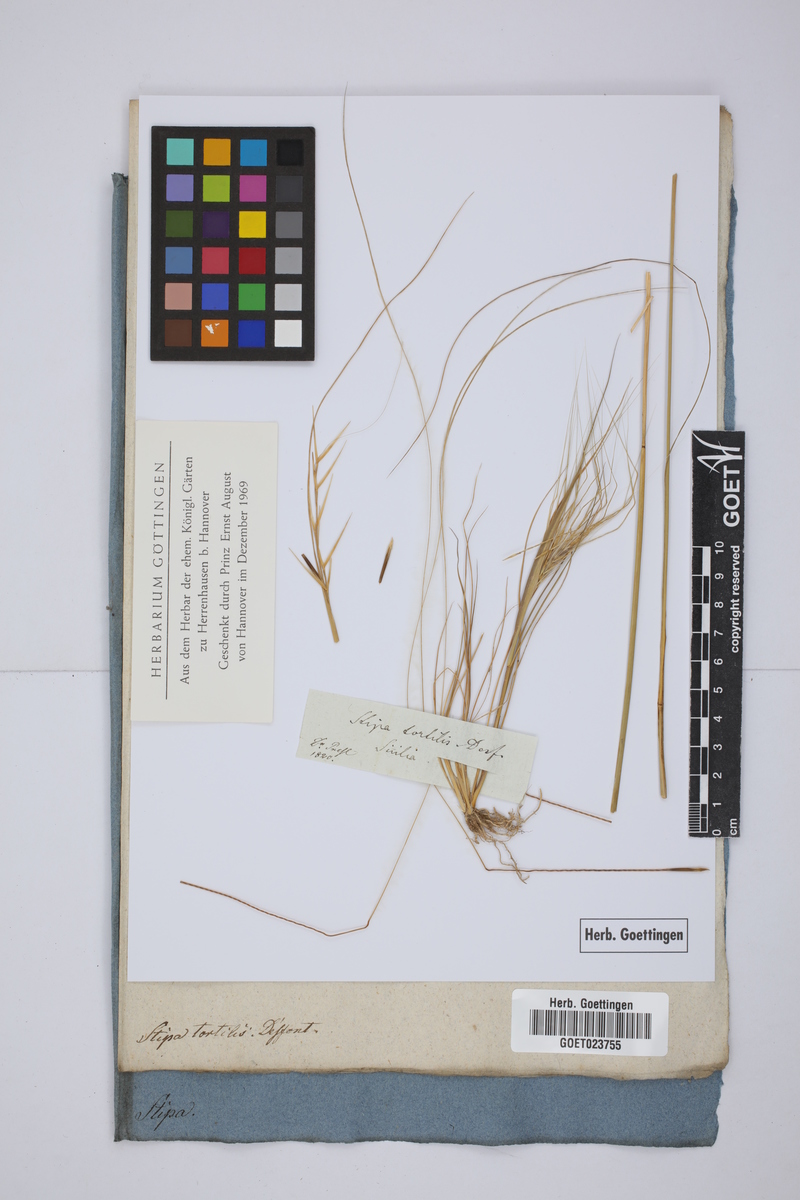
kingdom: Plantae
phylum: Tracheophyta
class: Liliopsida
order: Poales
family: Poaceae
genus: Stipellula
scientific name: Stipellula capensis
